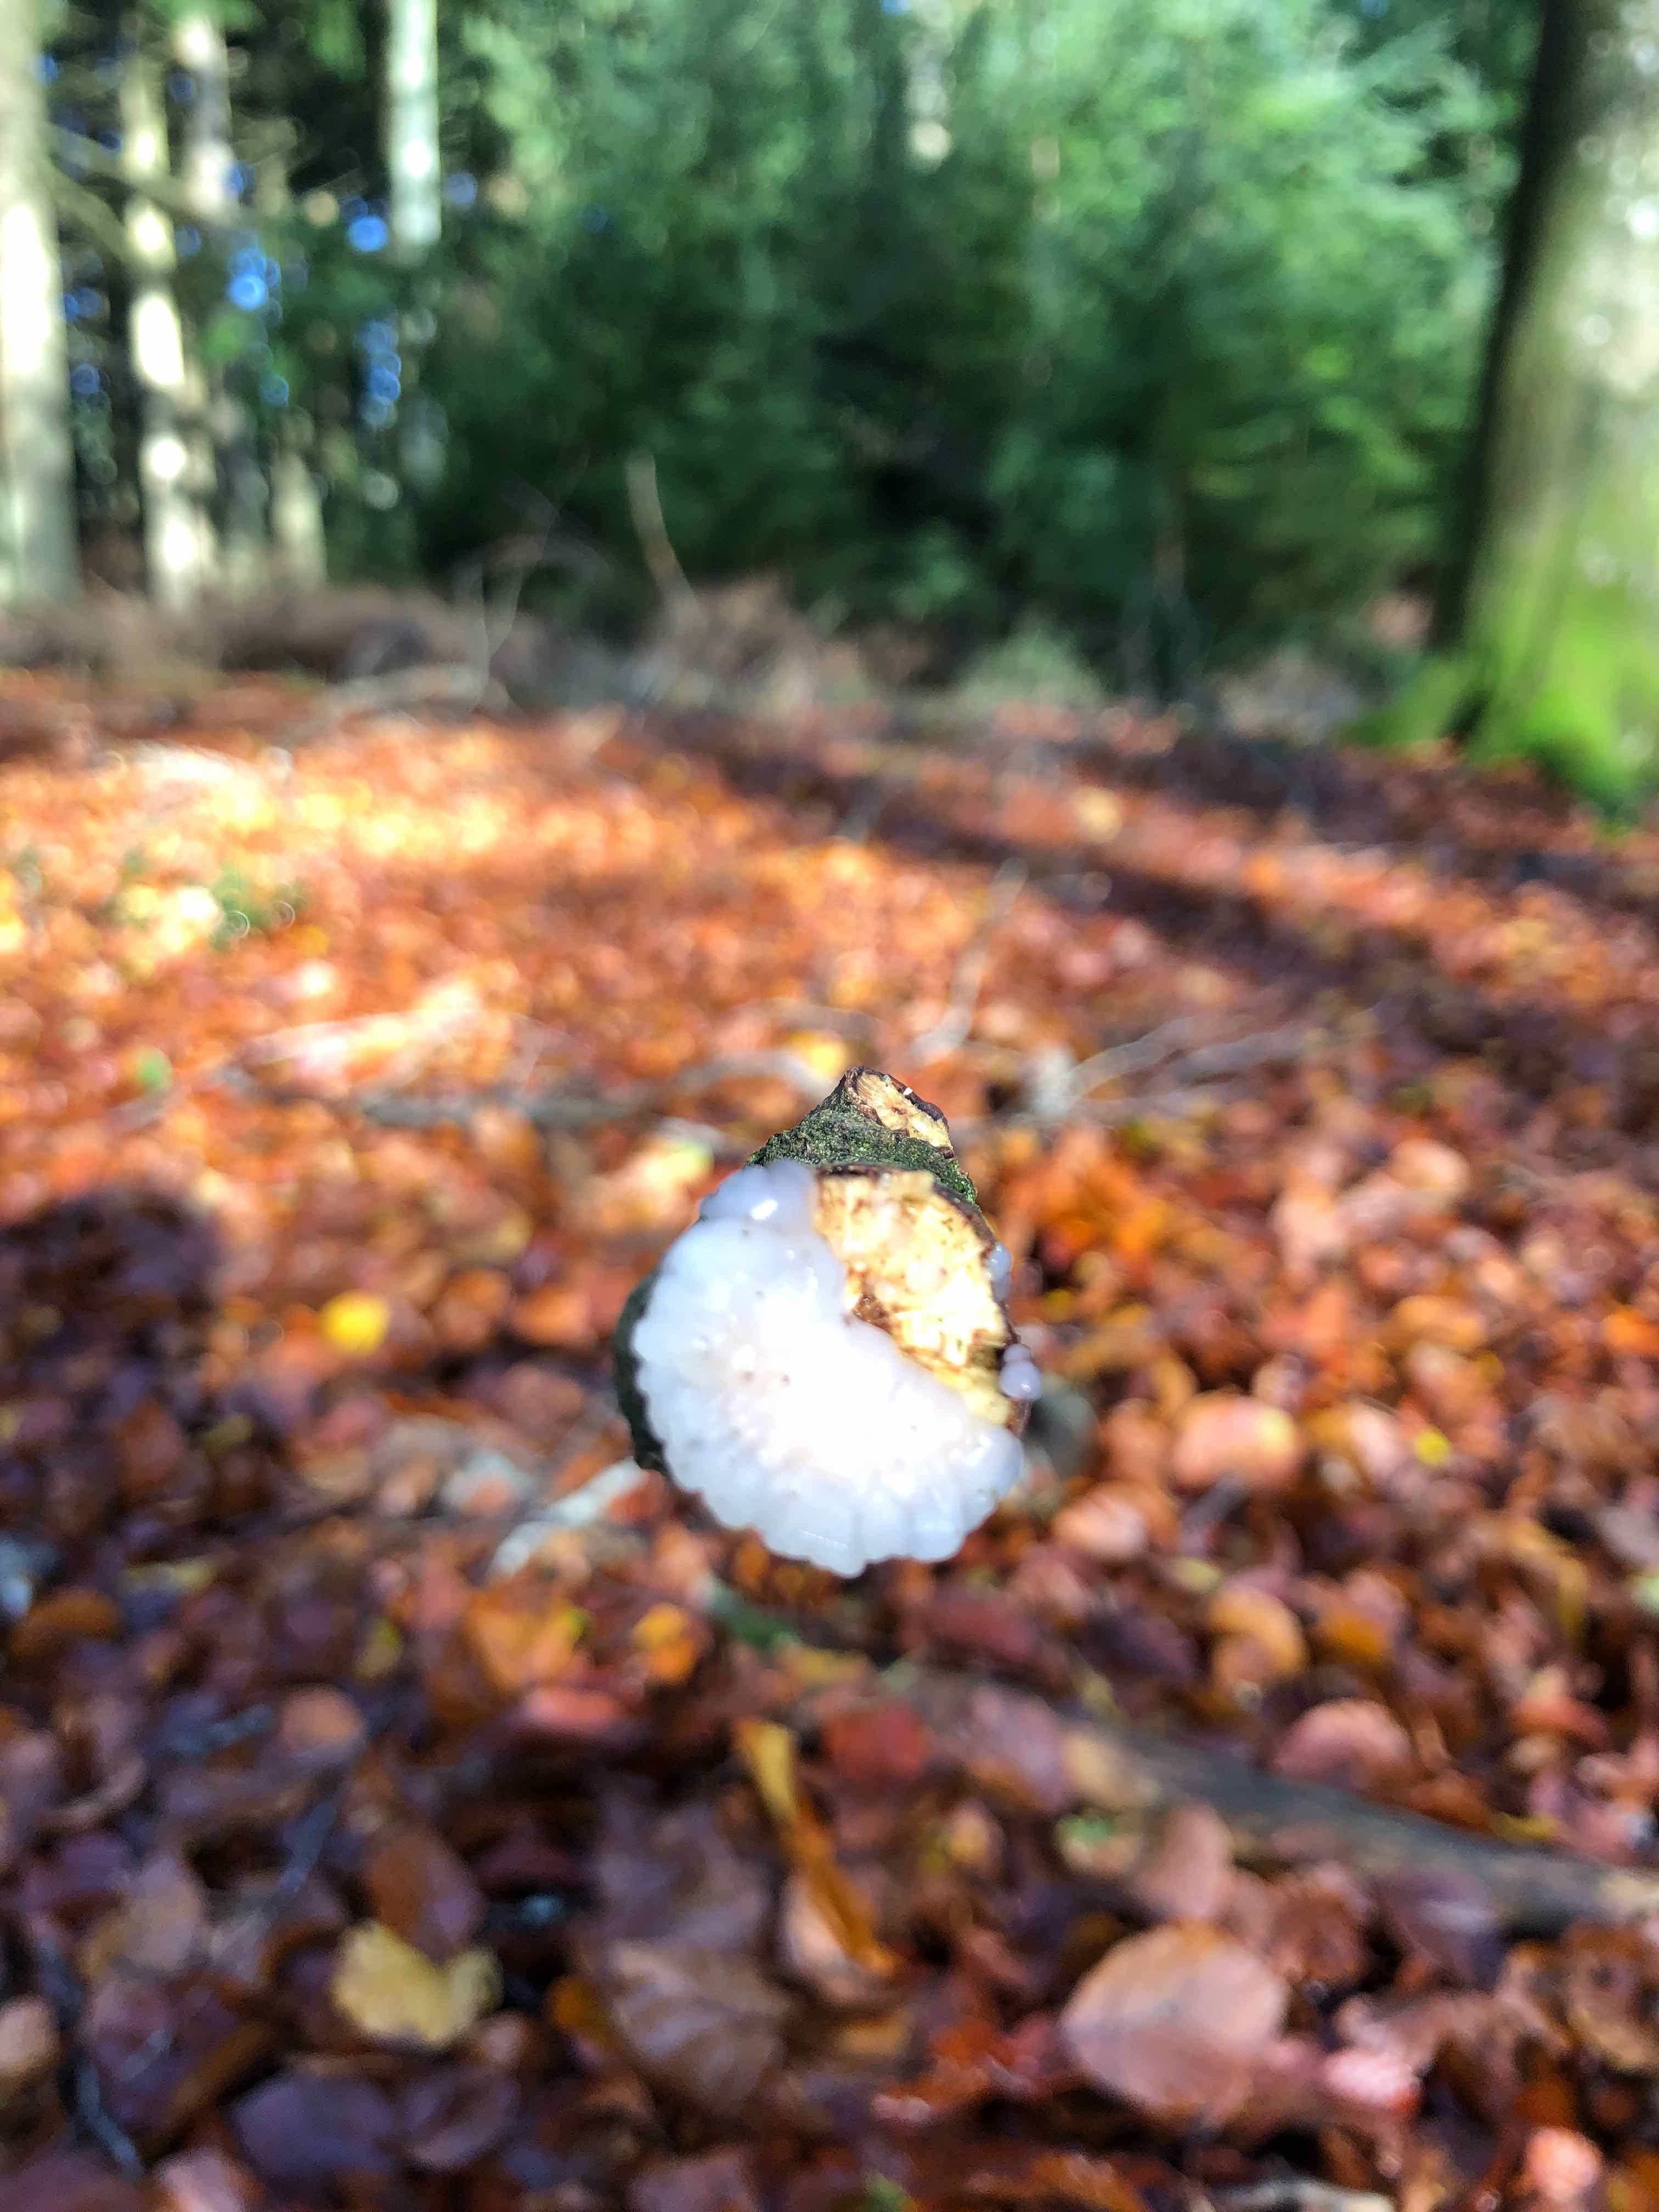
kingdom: Fungi
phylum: Basidiomycota
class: Agaricomycetes
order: Auriculariales
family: Auriculariaceae
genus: Exidia
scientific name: Exidia thuretiana
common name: hvidlig bævretop
